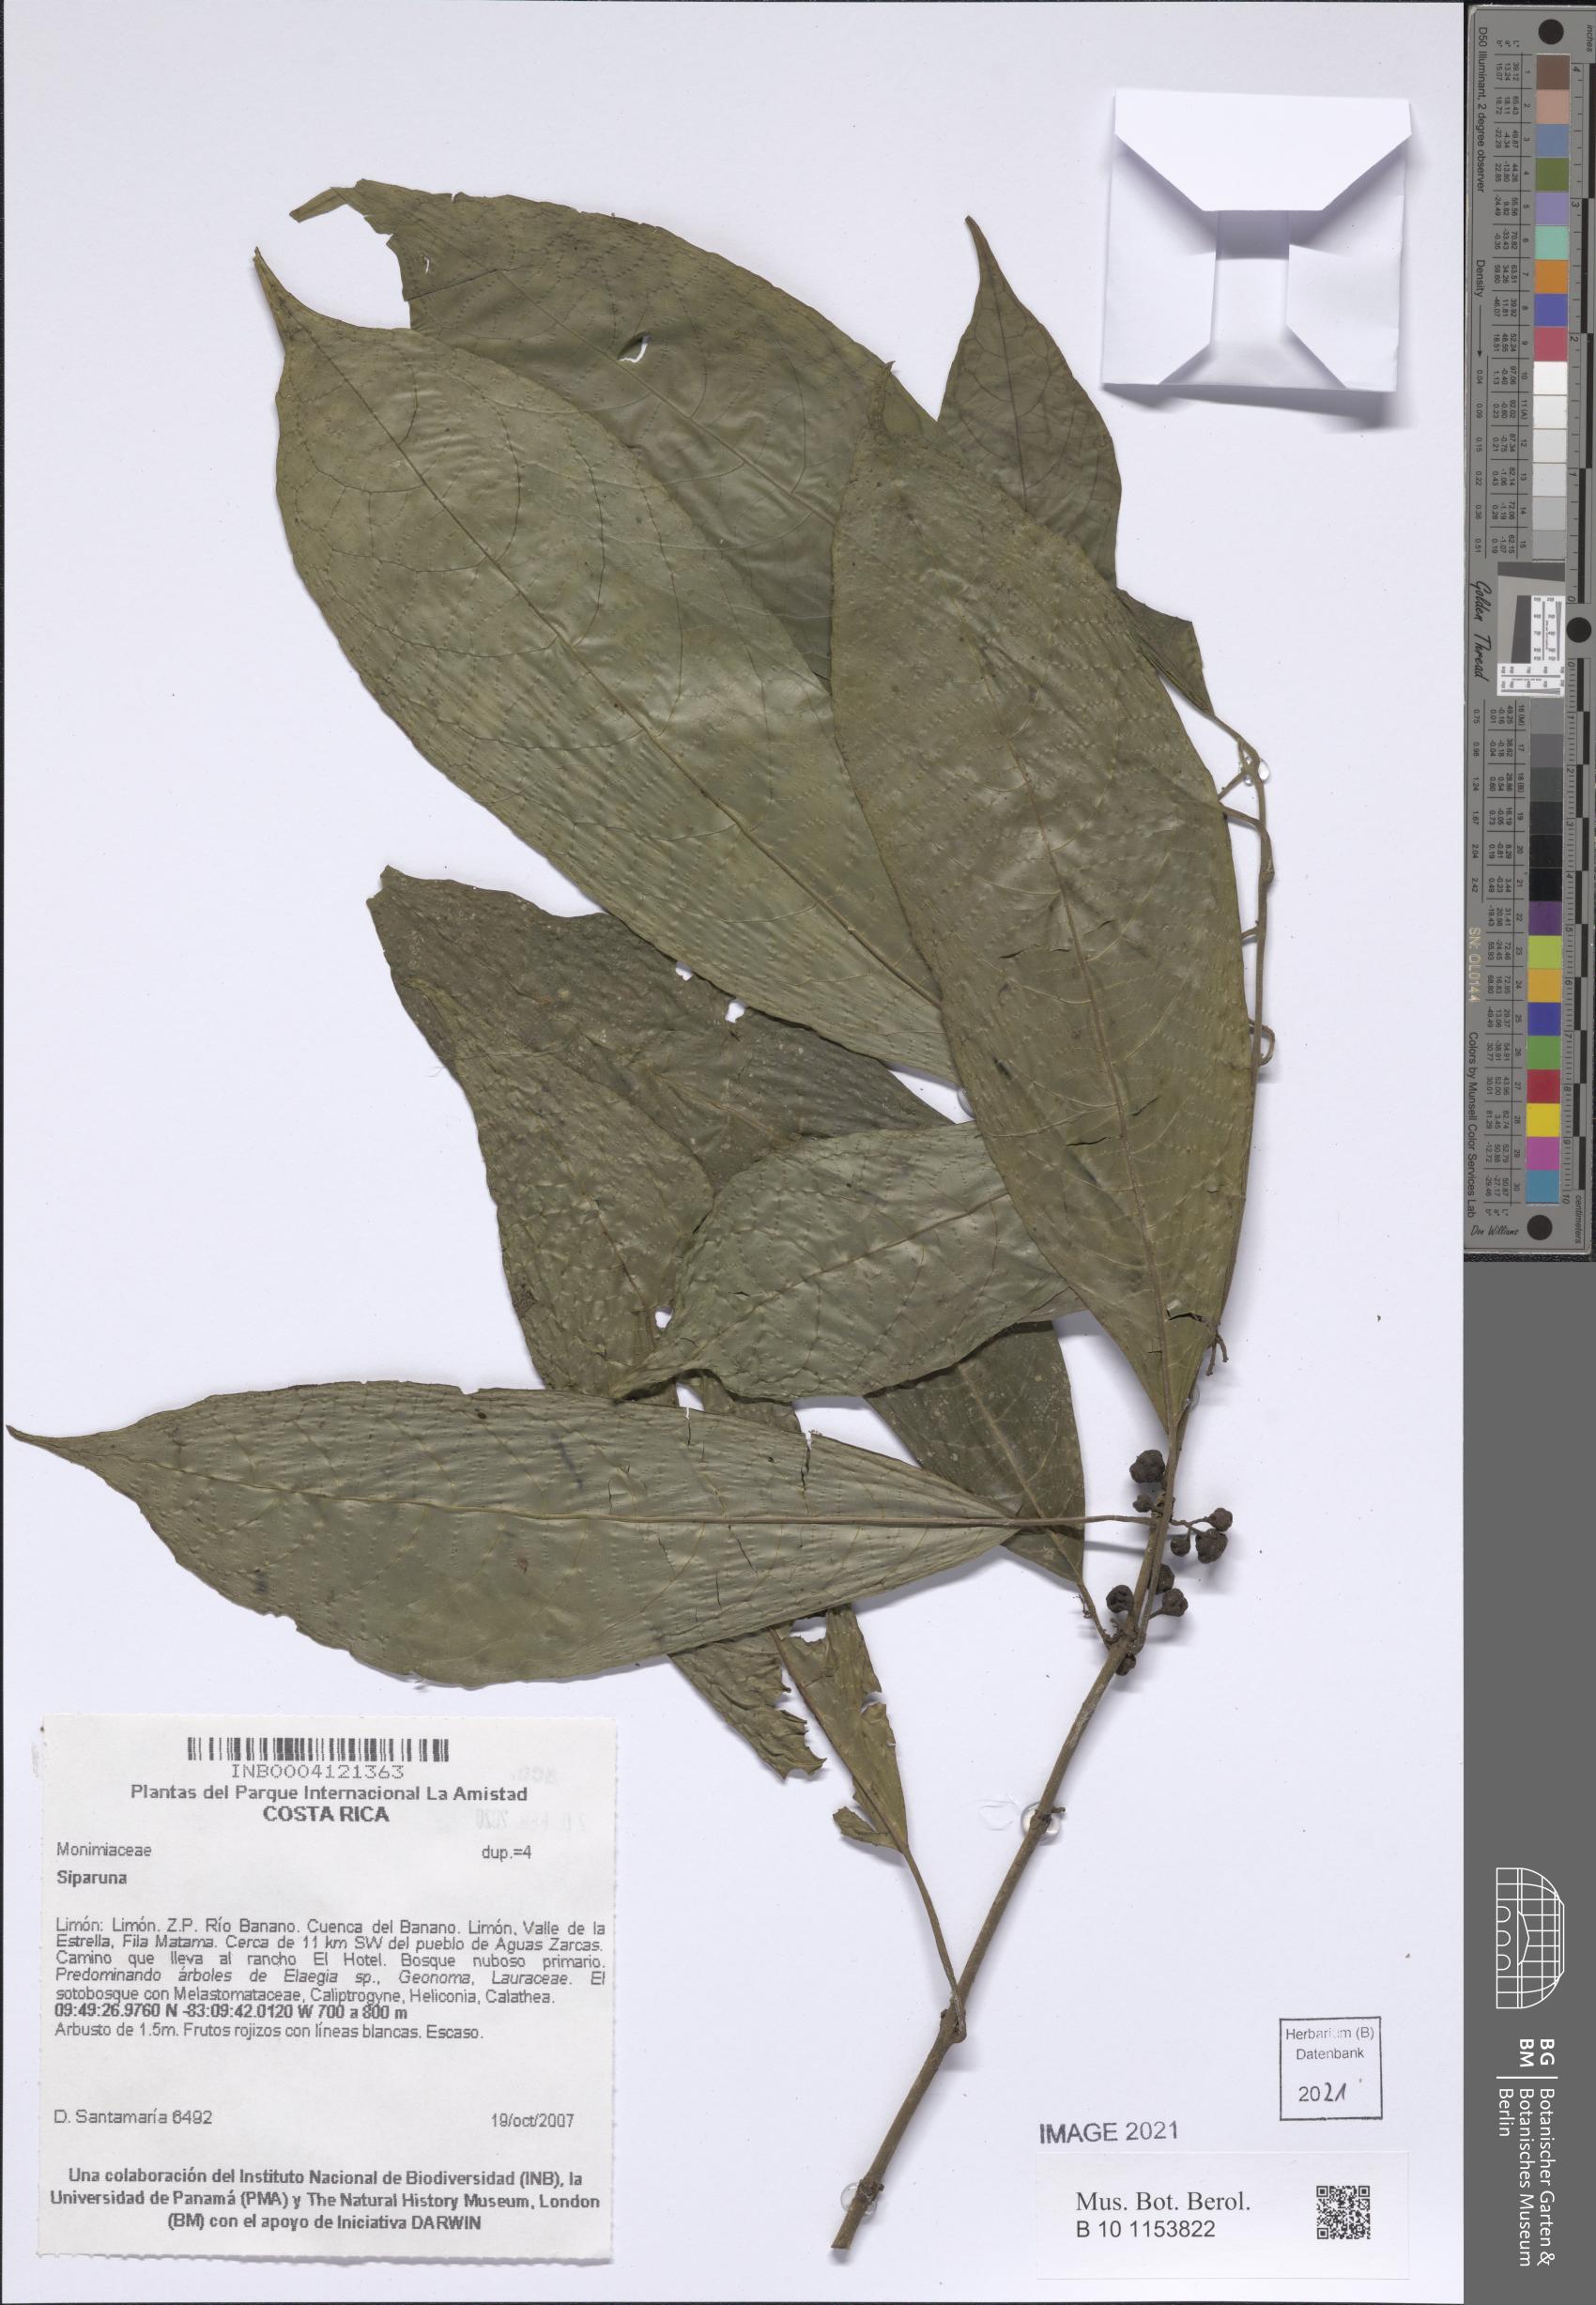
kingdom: Plantae
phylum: Tracheophyta
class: Magnoliopsida
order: Laurales
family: Siparunaceae
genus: Siparuna
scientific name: Siparuna
